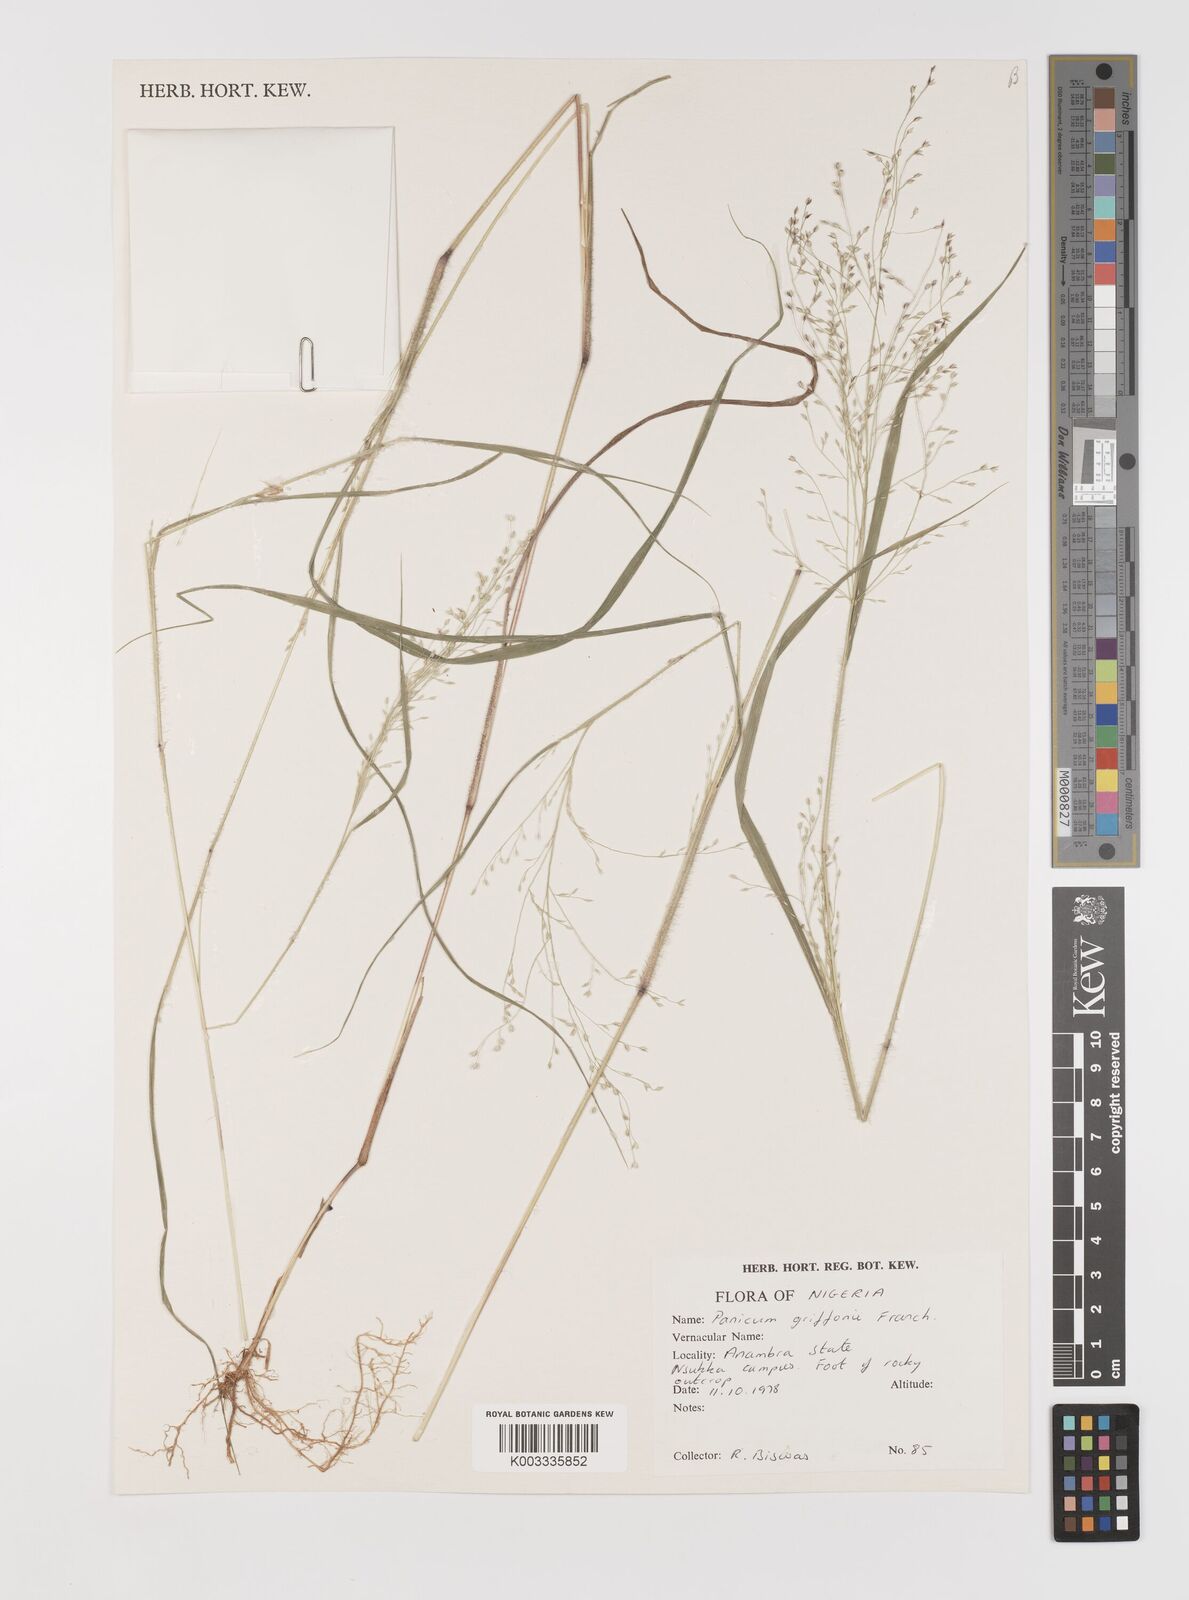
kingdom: Plantae
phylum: Tracheophyta
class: Liliopsida
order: Poales
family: Poaceae
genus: Panicum
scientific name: Panicum griffonii
